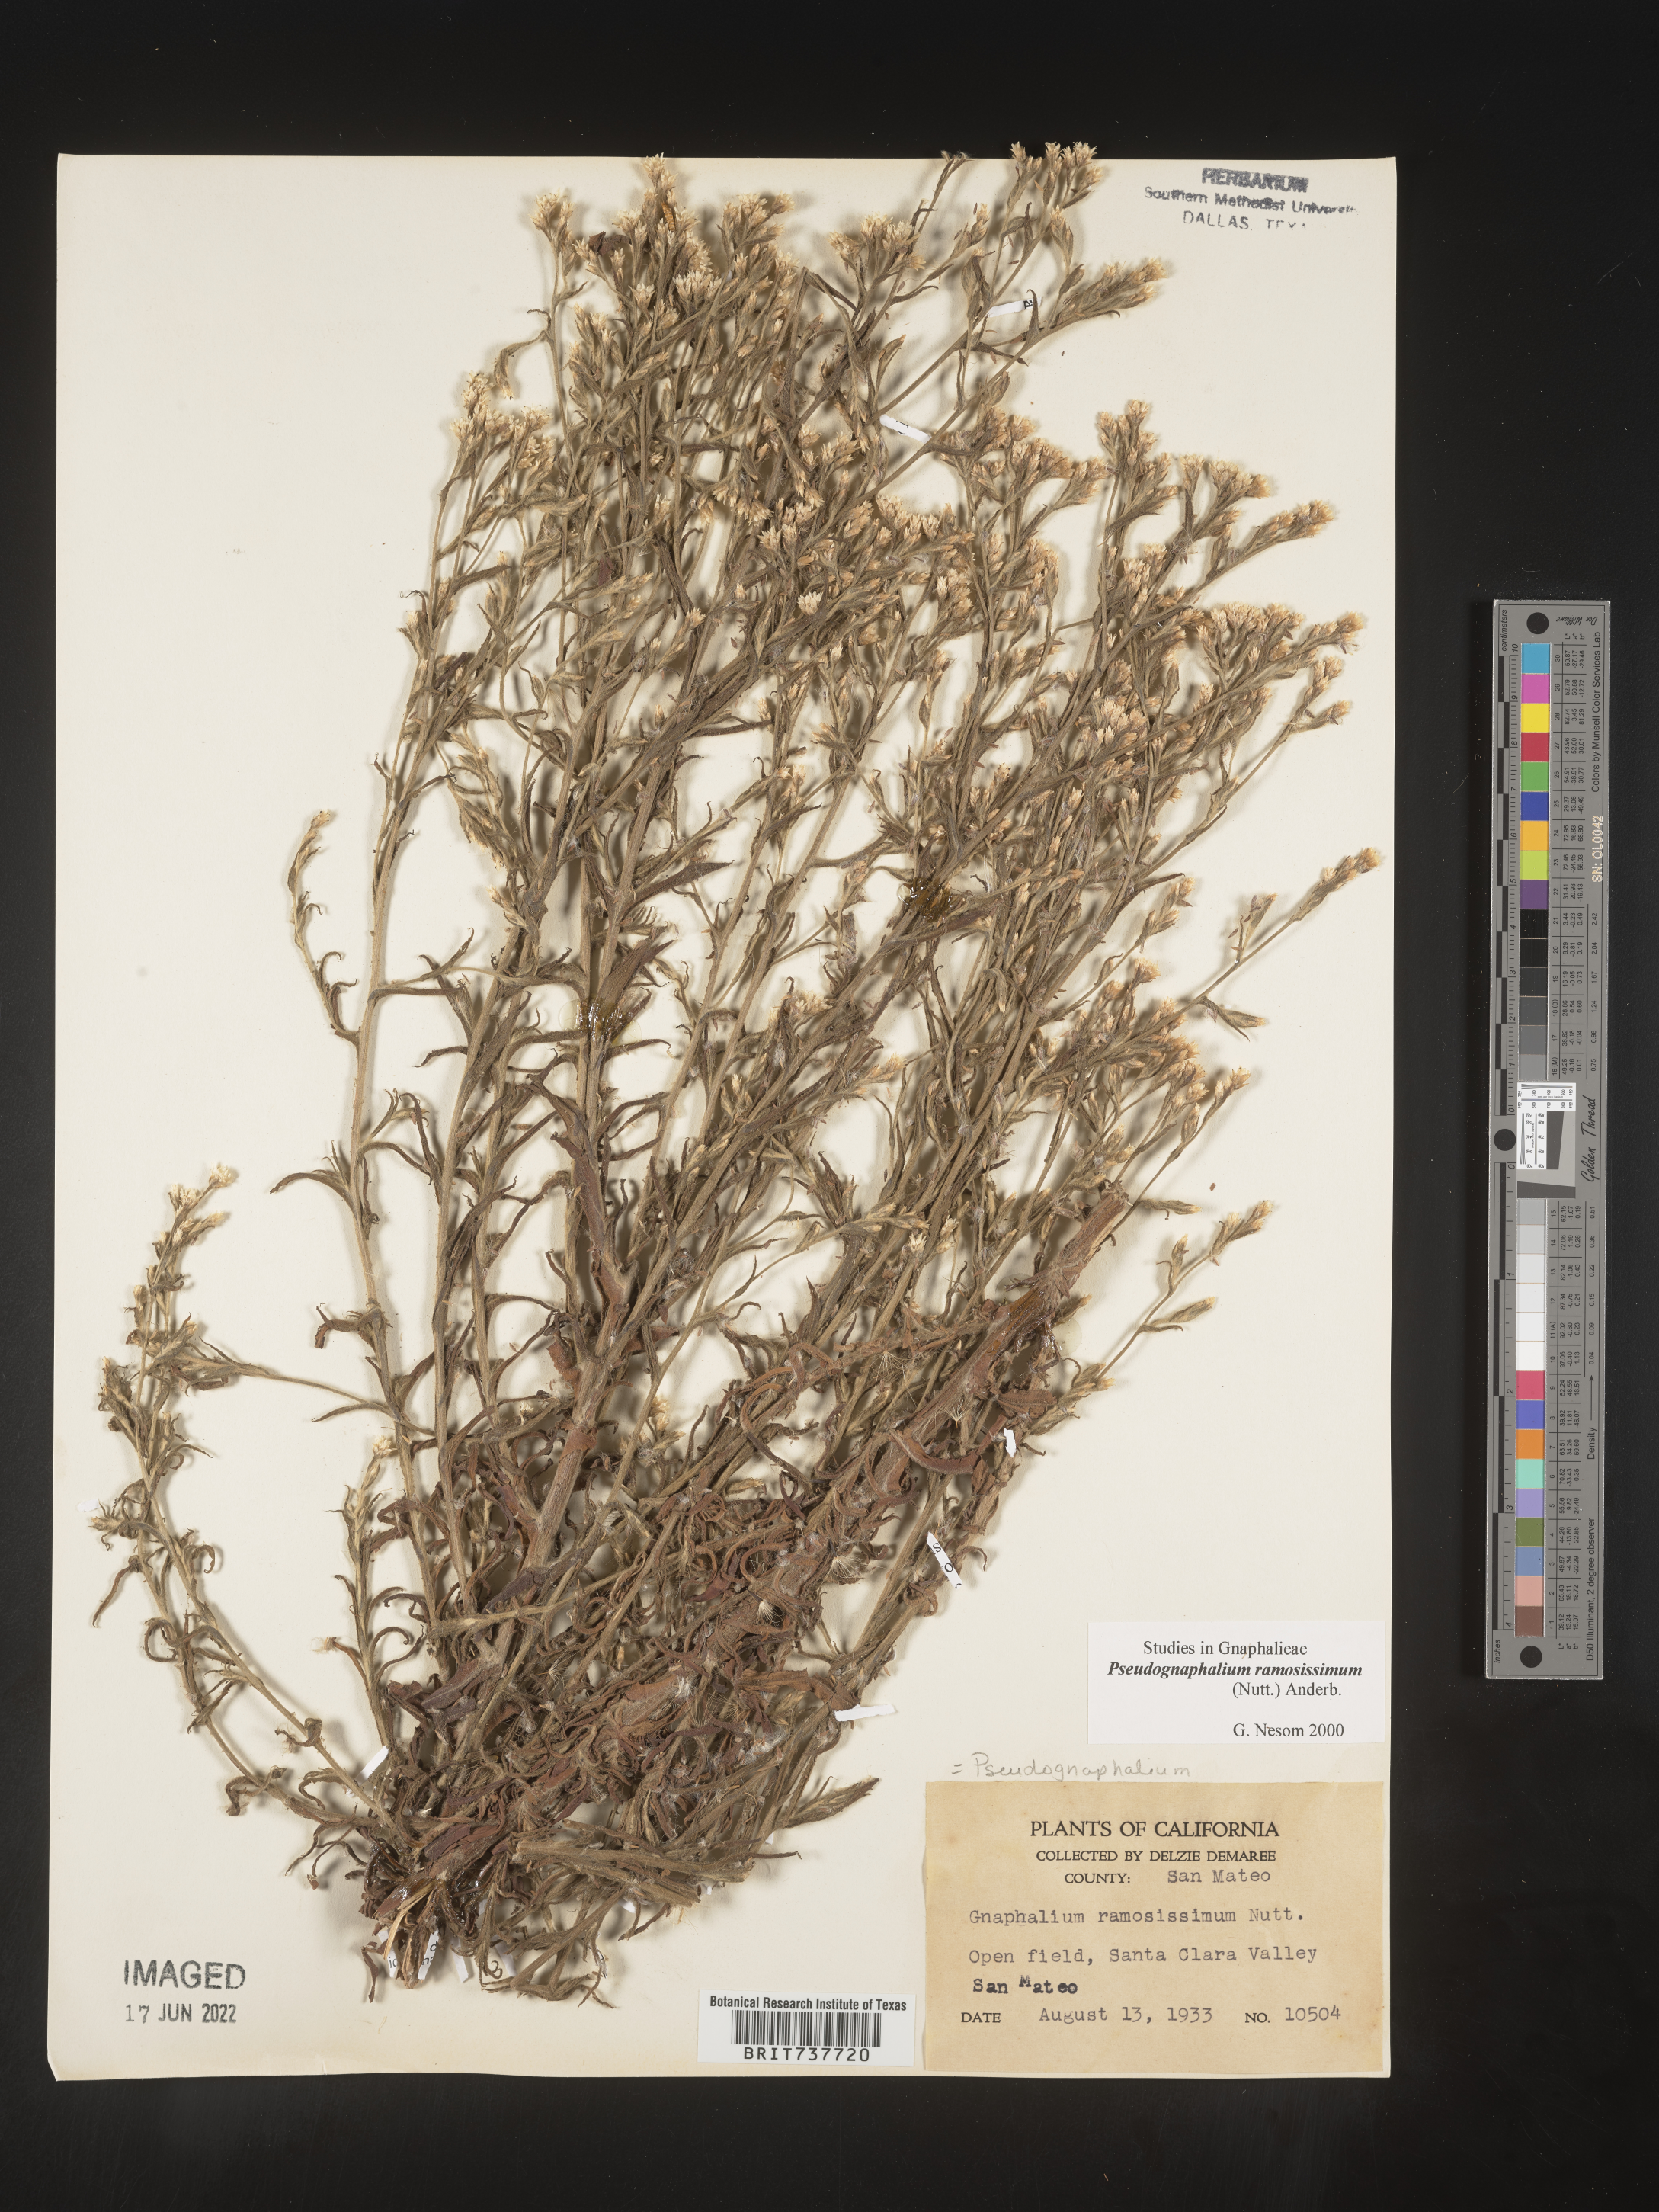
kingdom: Plantae
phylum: Tracheophyta
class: Magnoliopsida
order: Asterales
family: Asteraceae
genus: Pseudognaphalium
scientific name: Pseudognaphalium ramosissimum
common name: Pink rabbit-tobacco
